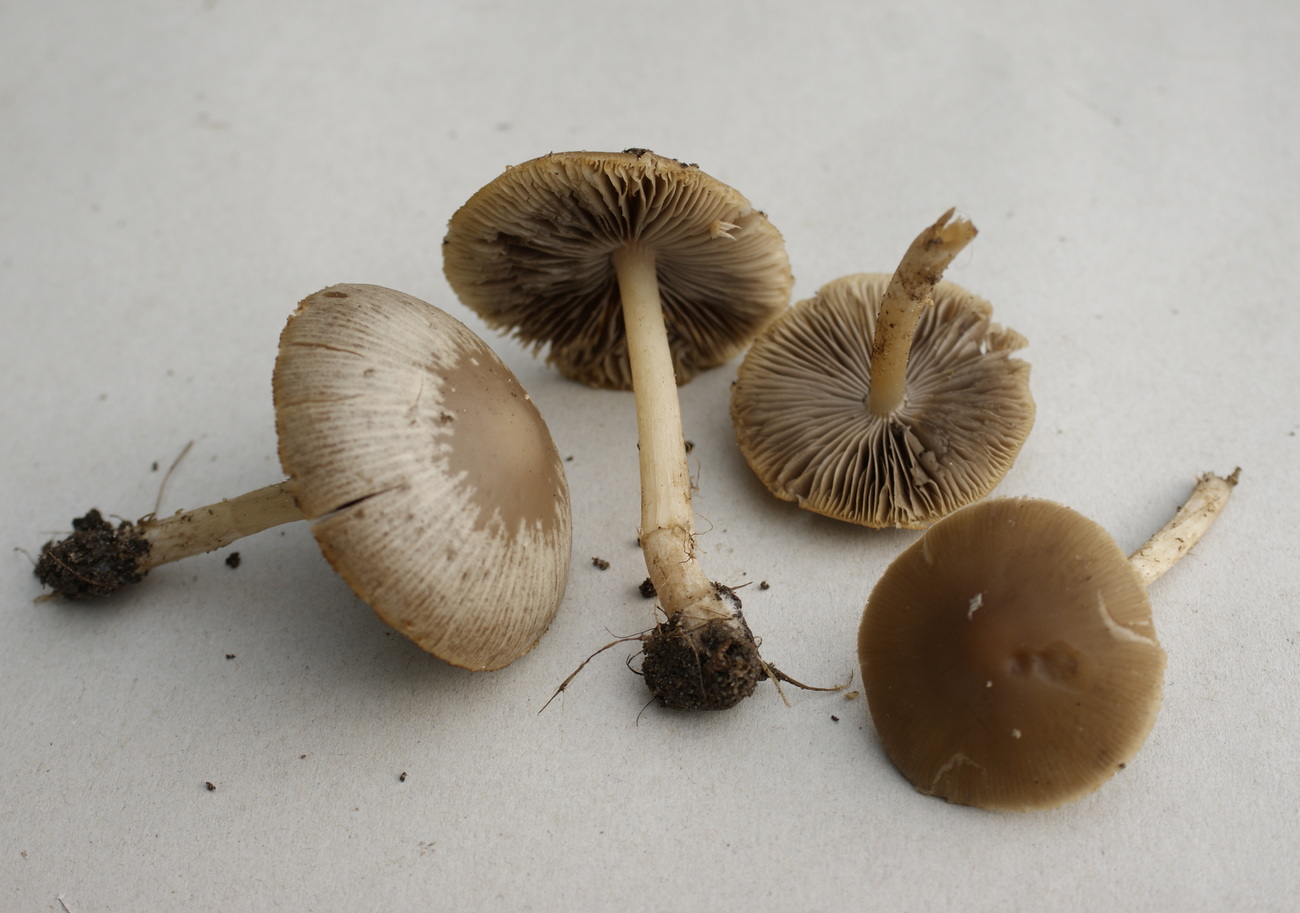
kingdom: Fungi
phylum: Basidiomycota
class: Agaricomycetes
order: Agaricales
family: Psathyrellaceae
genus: Psathyrella
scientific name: Psathyrella spadiceogrisea
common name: gråbrun mørkhat
